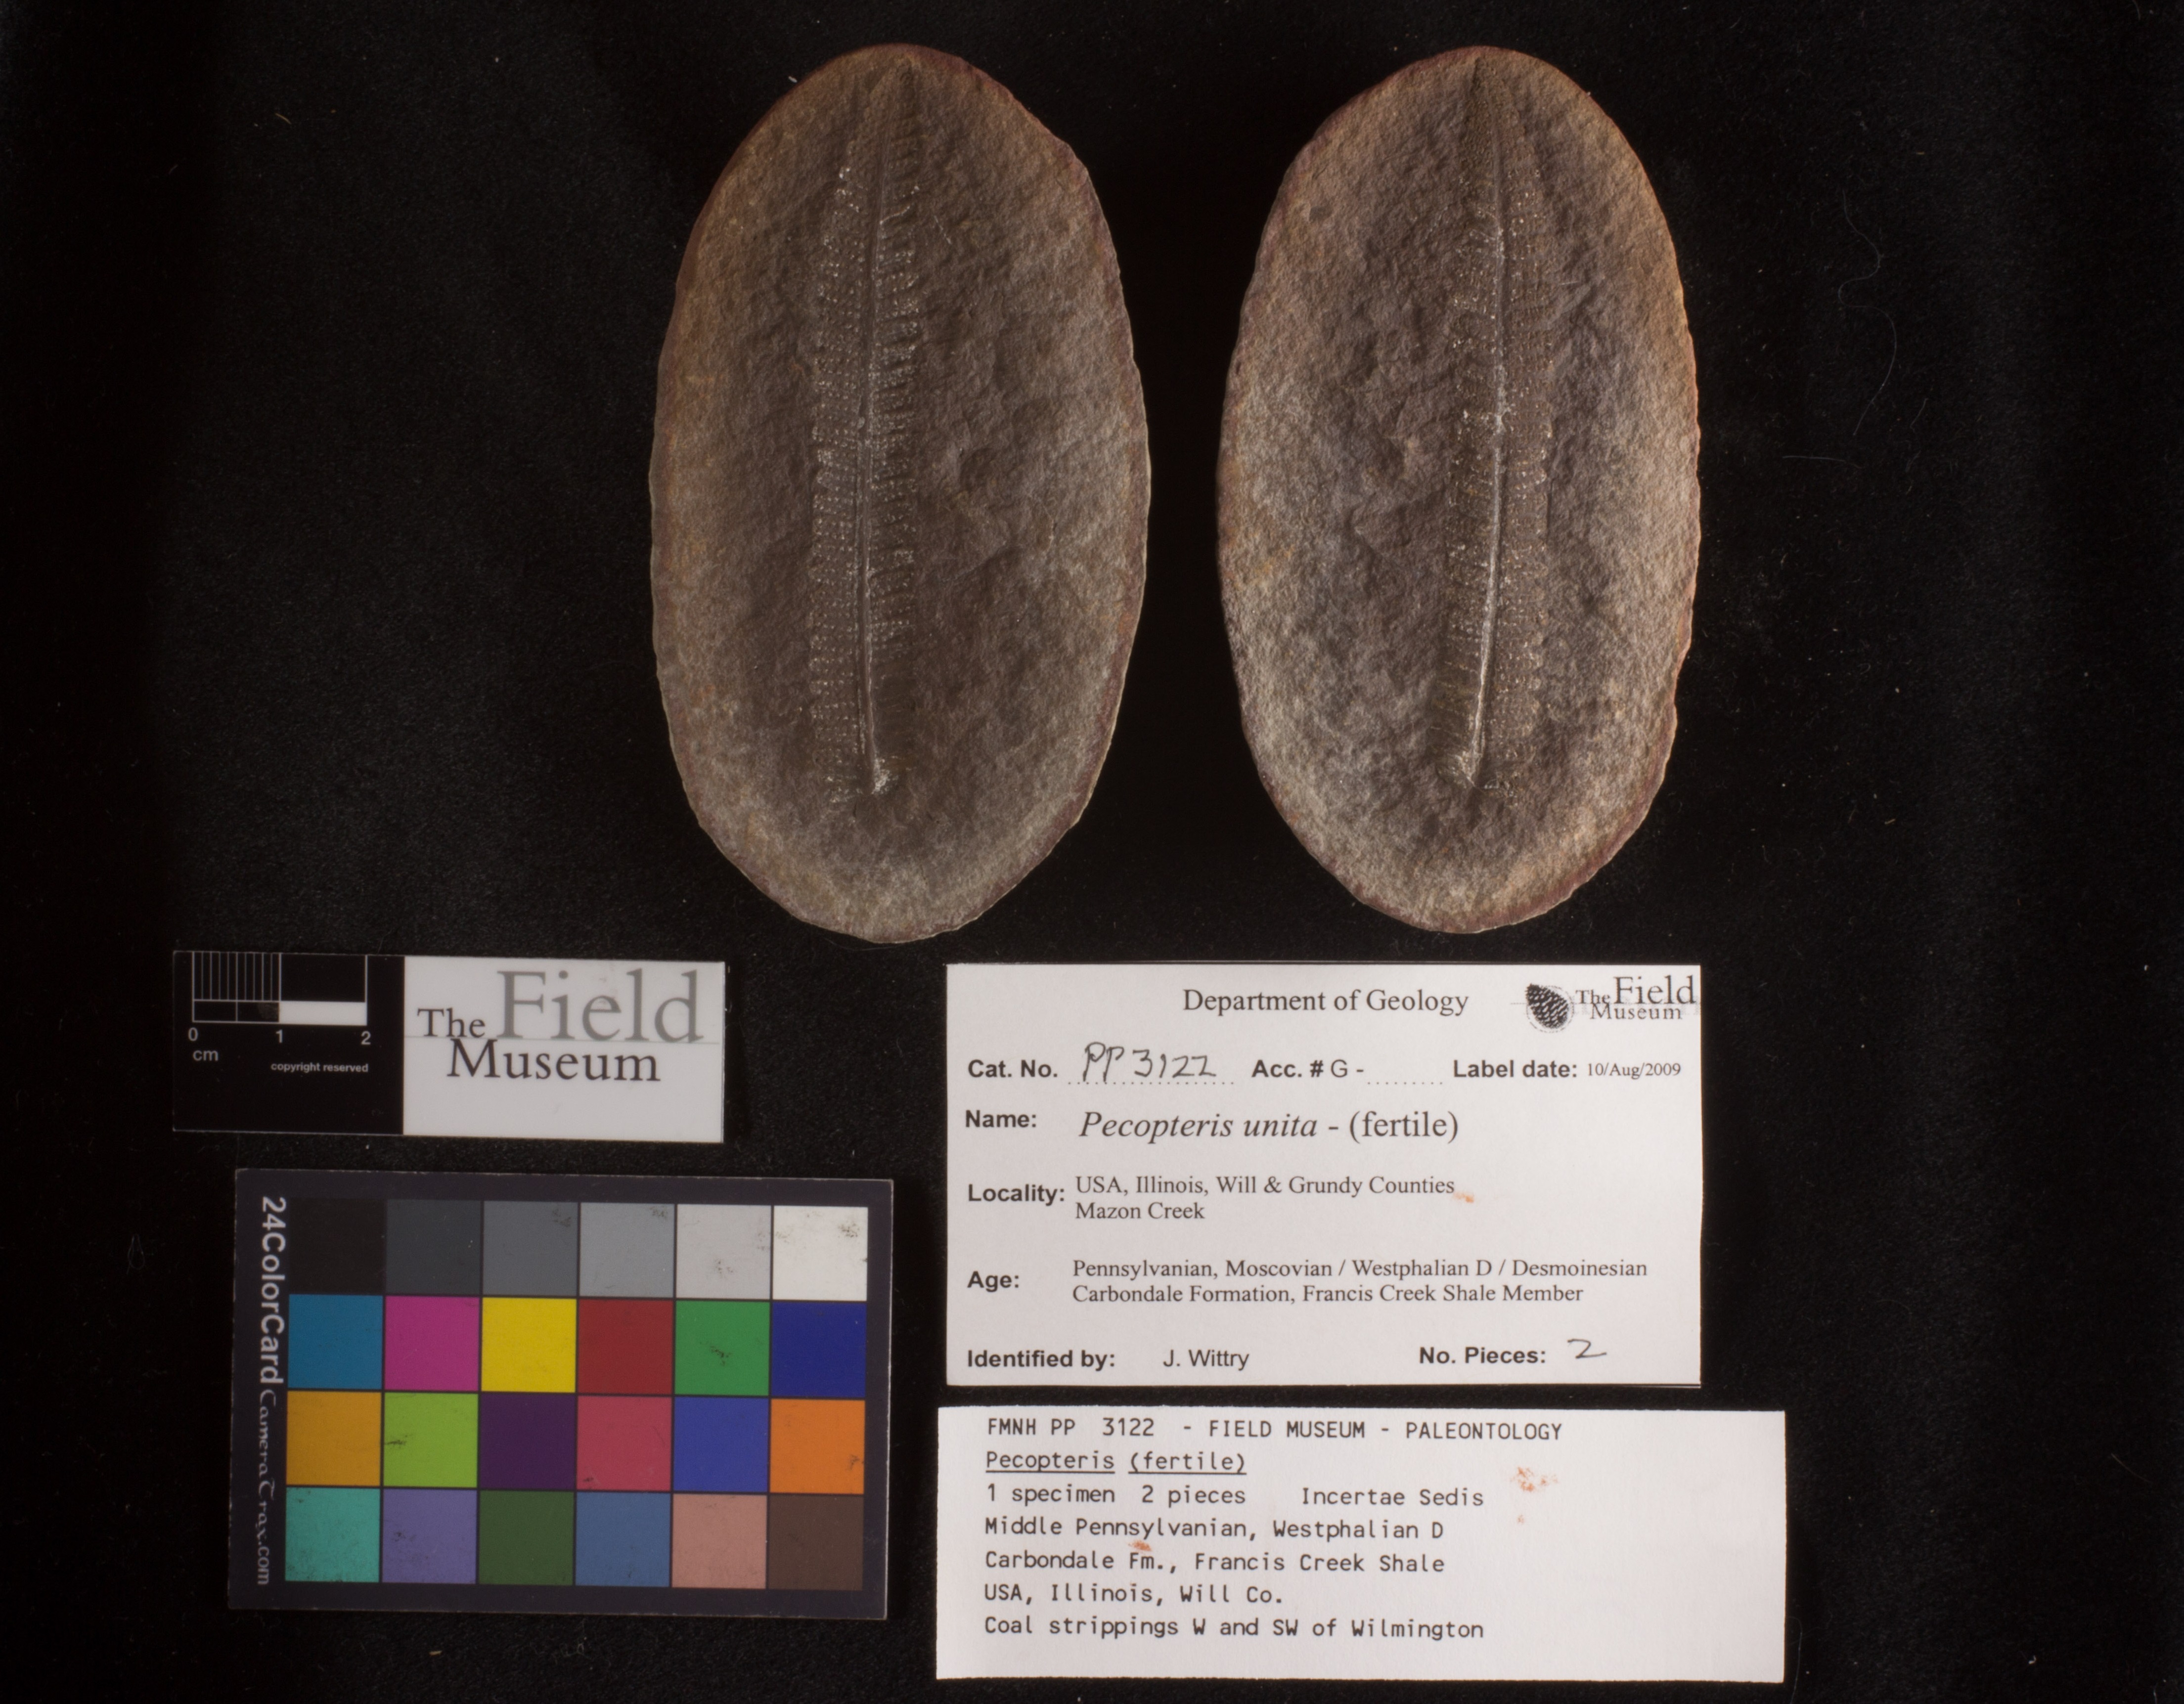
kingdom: Plantae
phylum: Tracheophyta
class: Polypodiopsida
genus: Diplazites
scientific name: Diplazites
